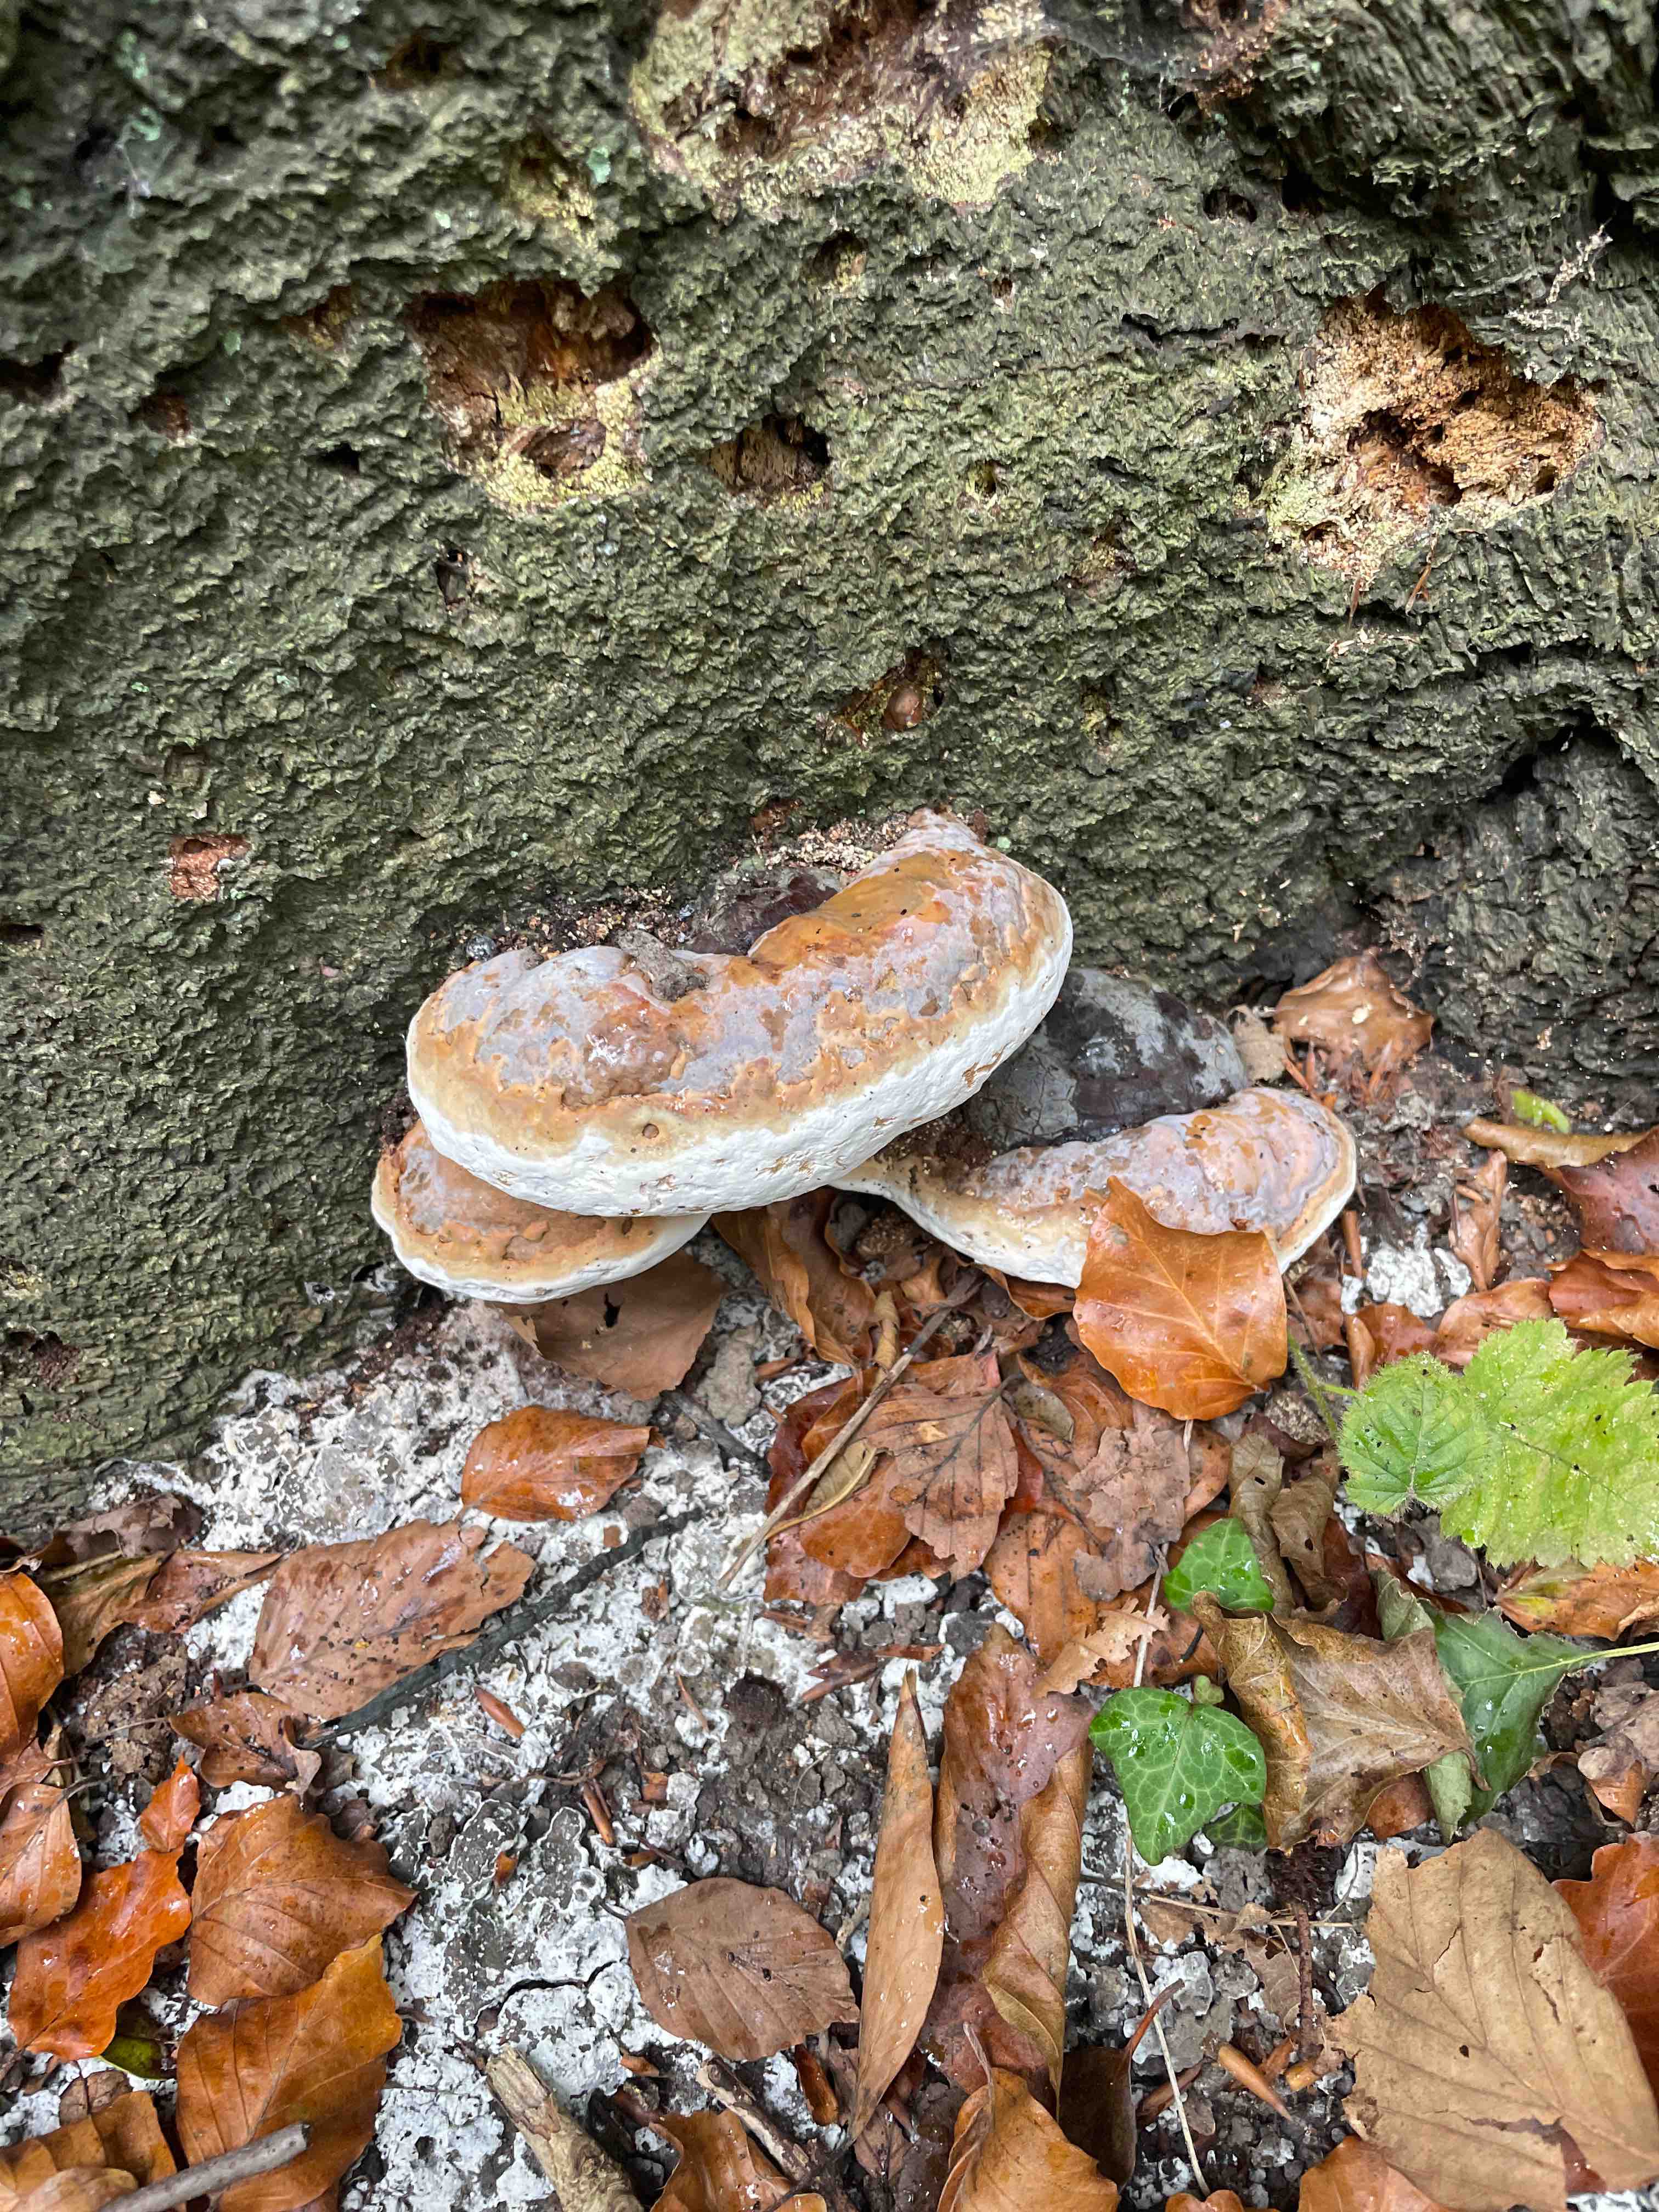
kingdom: Fungi
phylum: Basidiomycota
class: Agaricomycetes
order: Polyporales
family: Fomitopsidaceae
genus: Fomitopsis
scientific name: Fomitopsis pinicola
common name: randbæltet hovporesvamp
